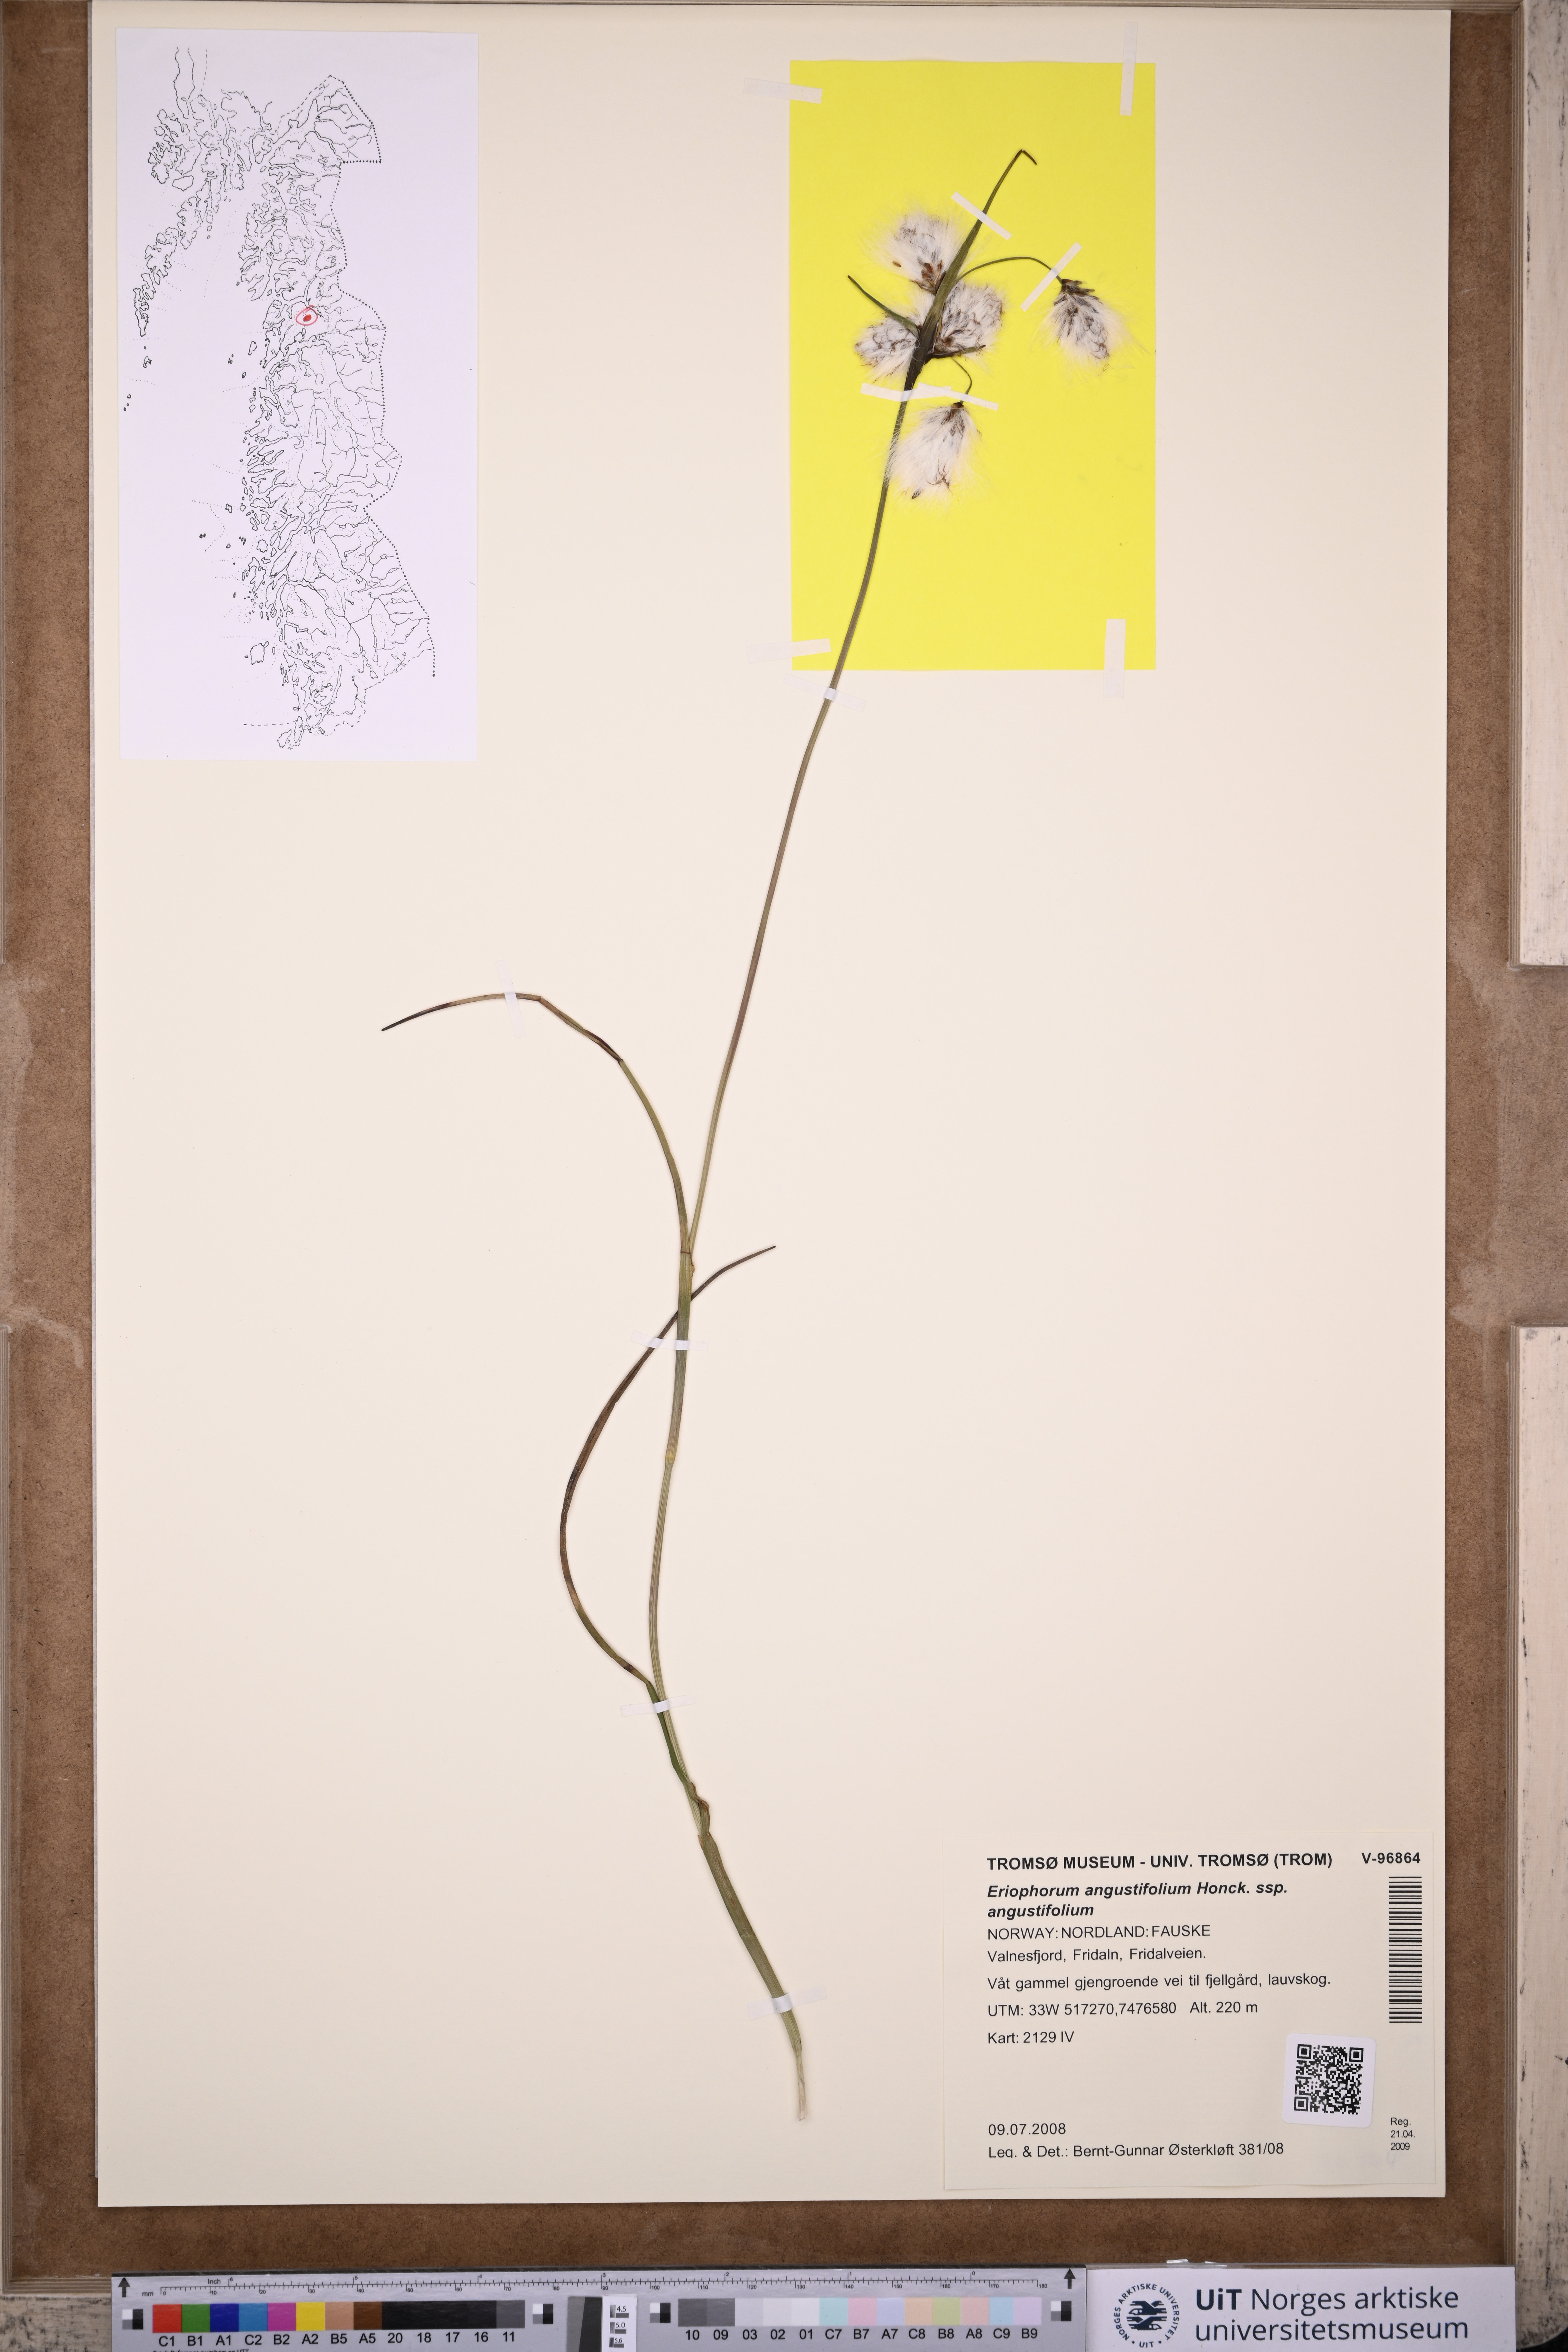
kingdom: Plantae
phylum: Tracheophyta
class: Liliopsida
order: Poales
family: Cyperaceae
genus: Eriophorum
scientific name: Eriophorum angustifolium
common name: Common cottongrass
